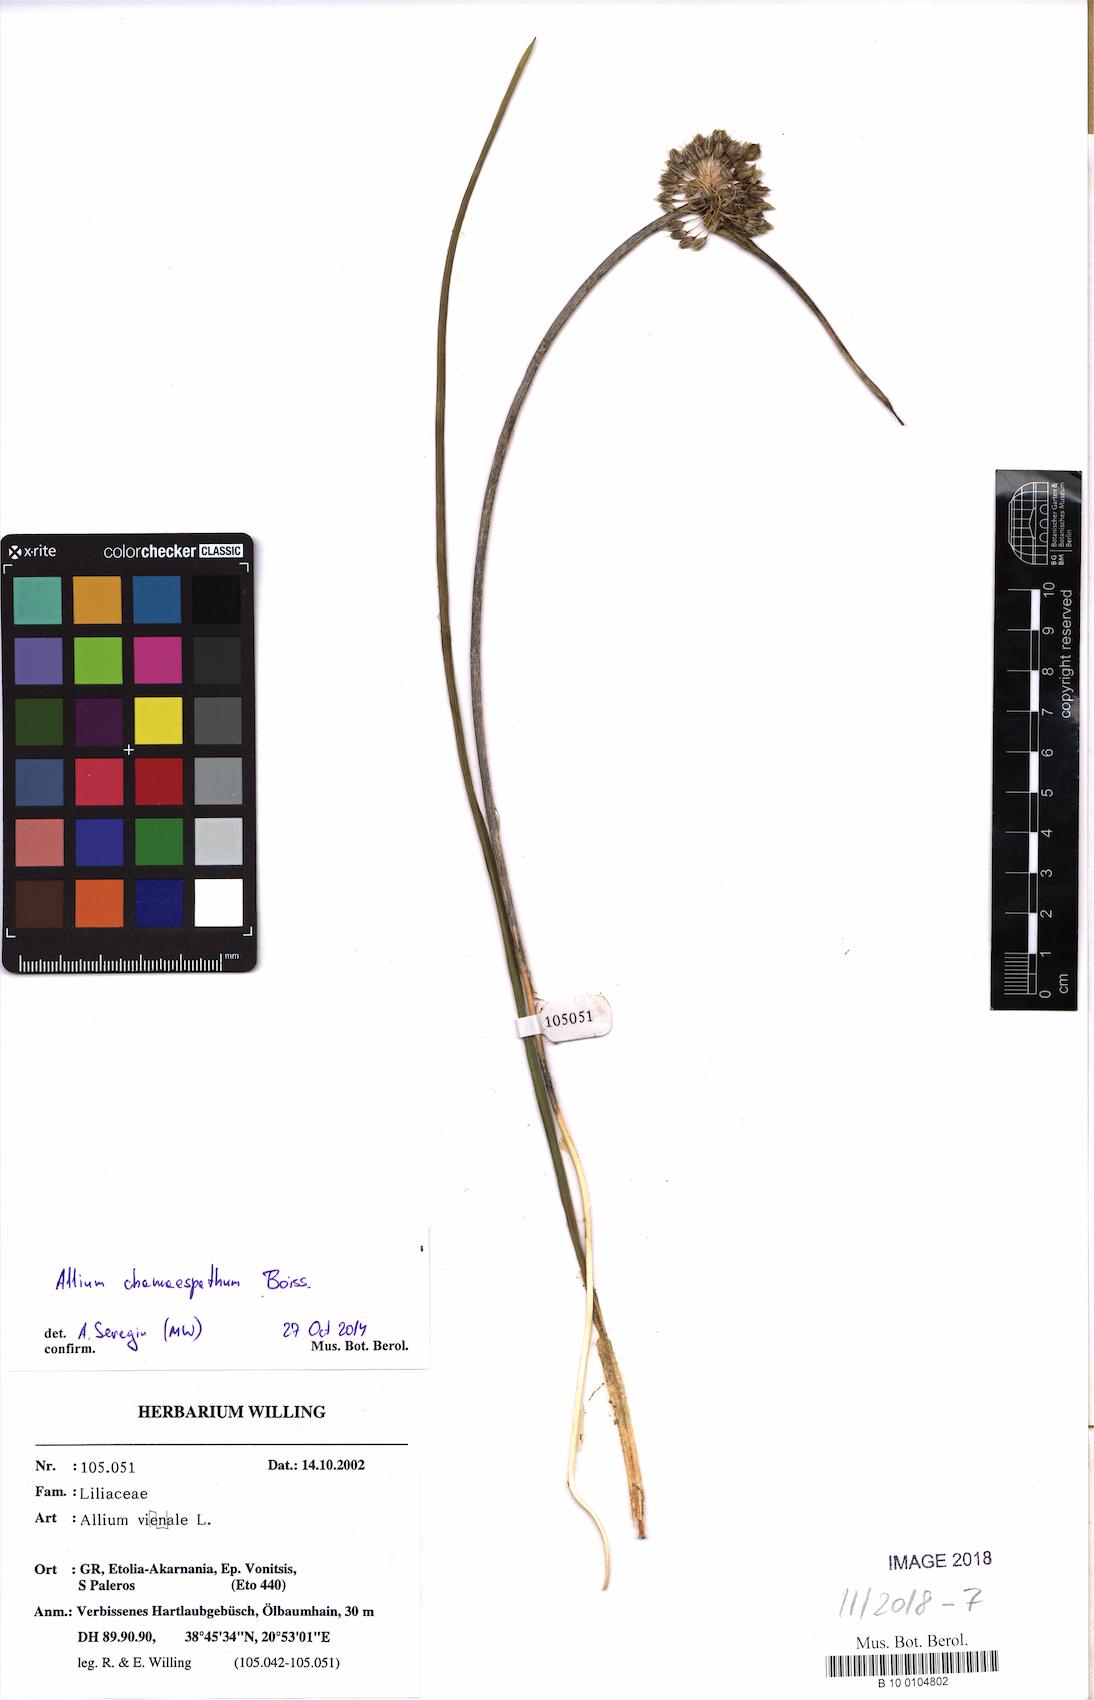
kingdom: Plantae
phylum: Tracheophyta
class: Liliopsida
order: Asparagales
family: Amaryllidaceae
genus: Allium
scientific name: Allium chamaespathum
